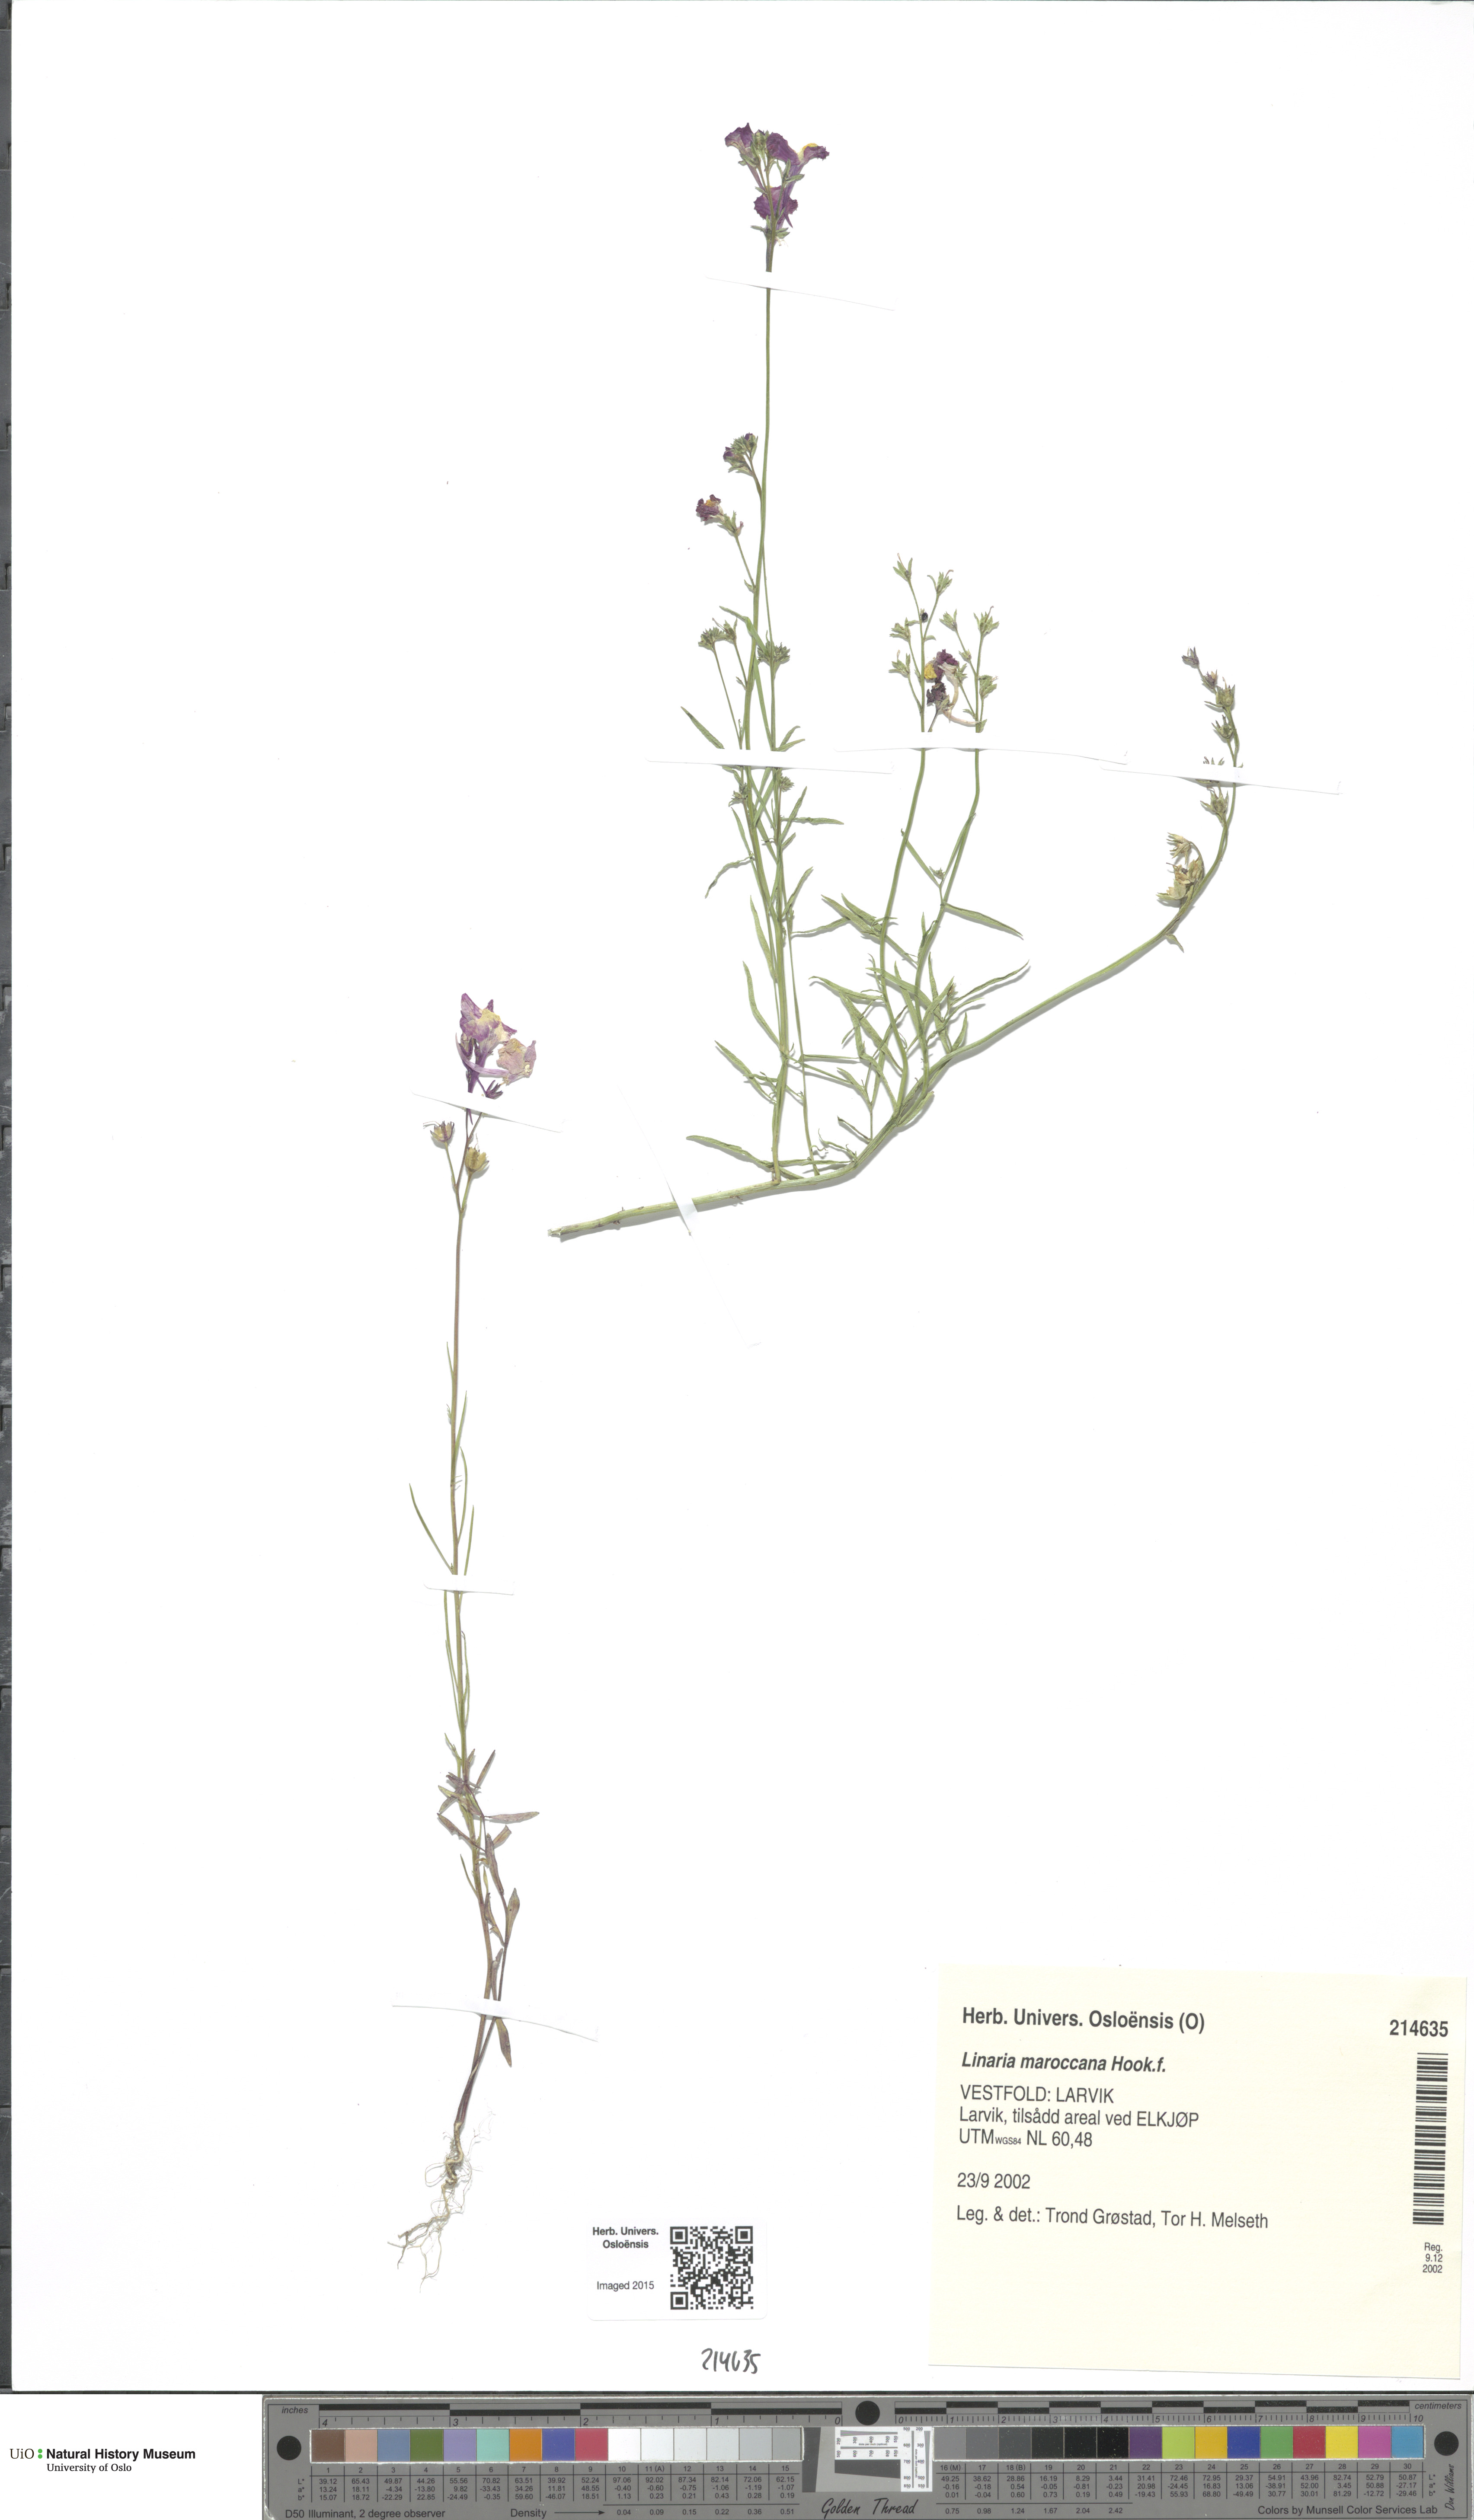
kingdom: Plantae
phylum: Tracheophyta
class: Magnoliopsida
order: Lamiales
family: Plantaginaceae
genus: Linaria
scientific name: Linaria maroccana
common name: Moroccan toadflax
